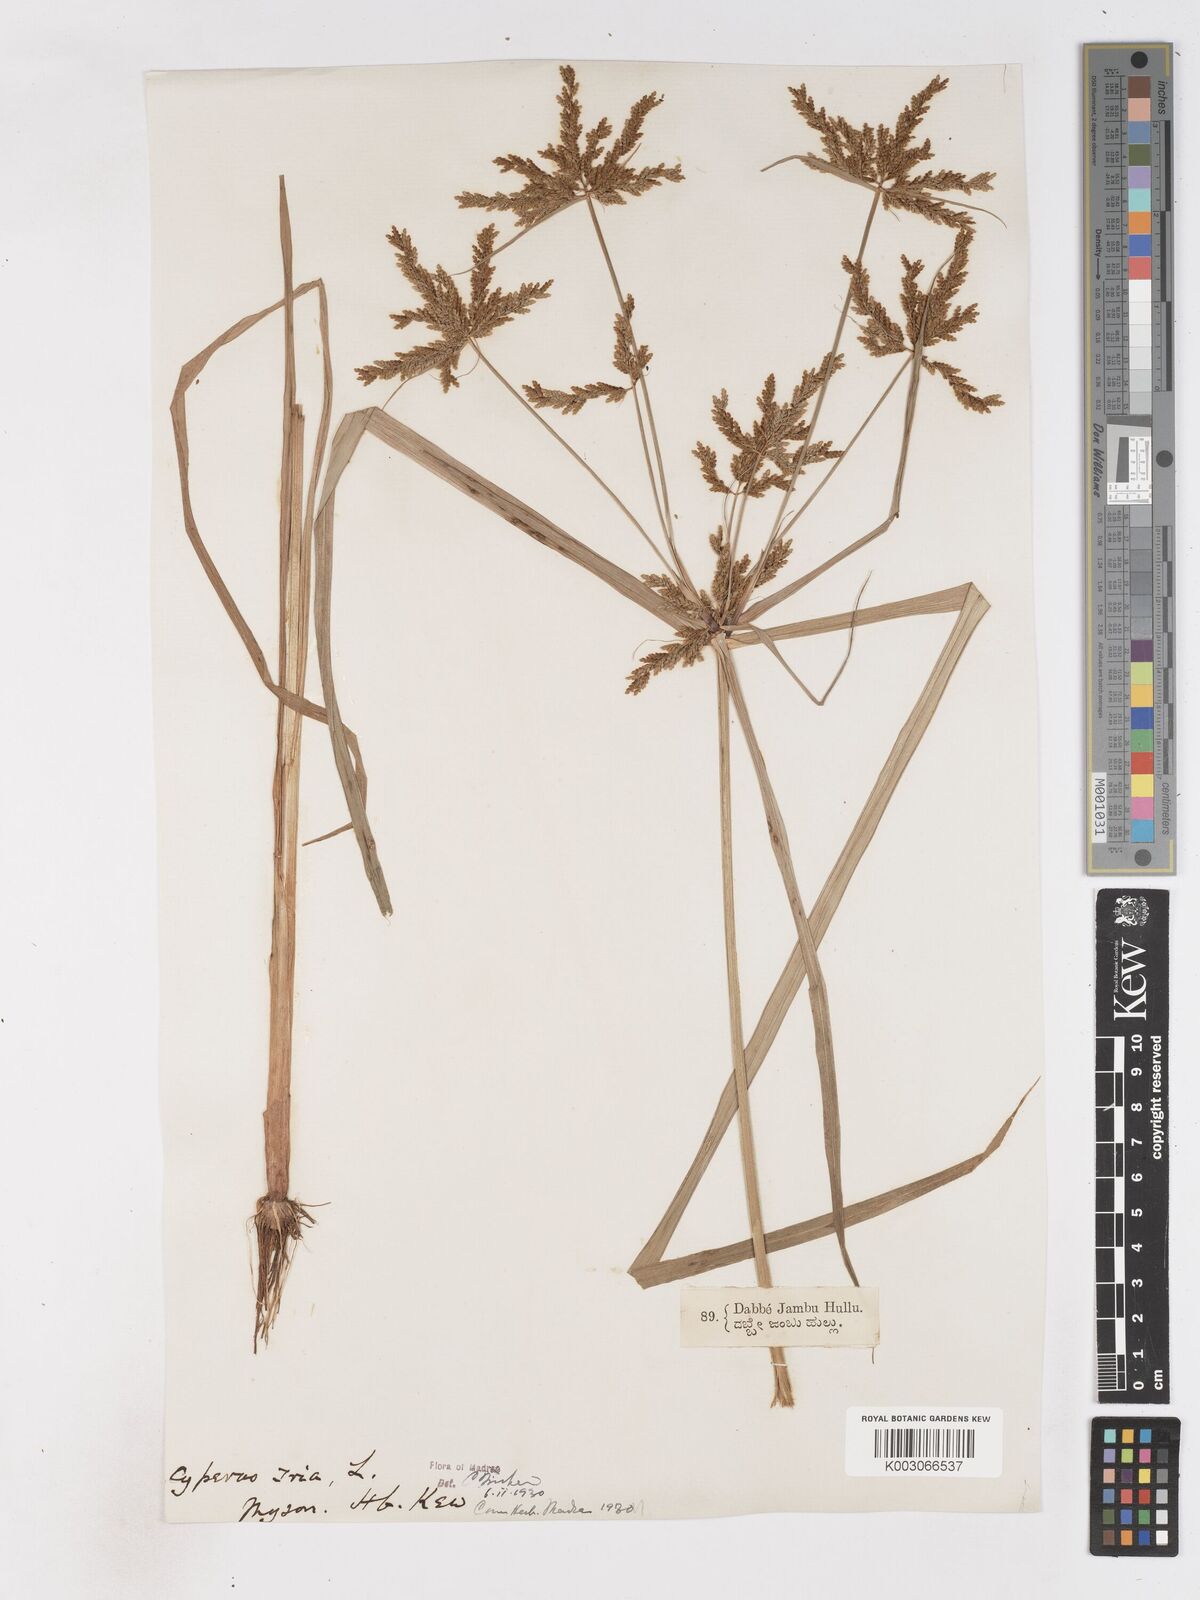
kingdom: Plantae
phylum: Tracheophyta
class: Liliopsida
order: Poales
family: Cyperaceae
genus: Cyperus
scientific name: Cyperus iria
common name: Ricefield flatsedge
